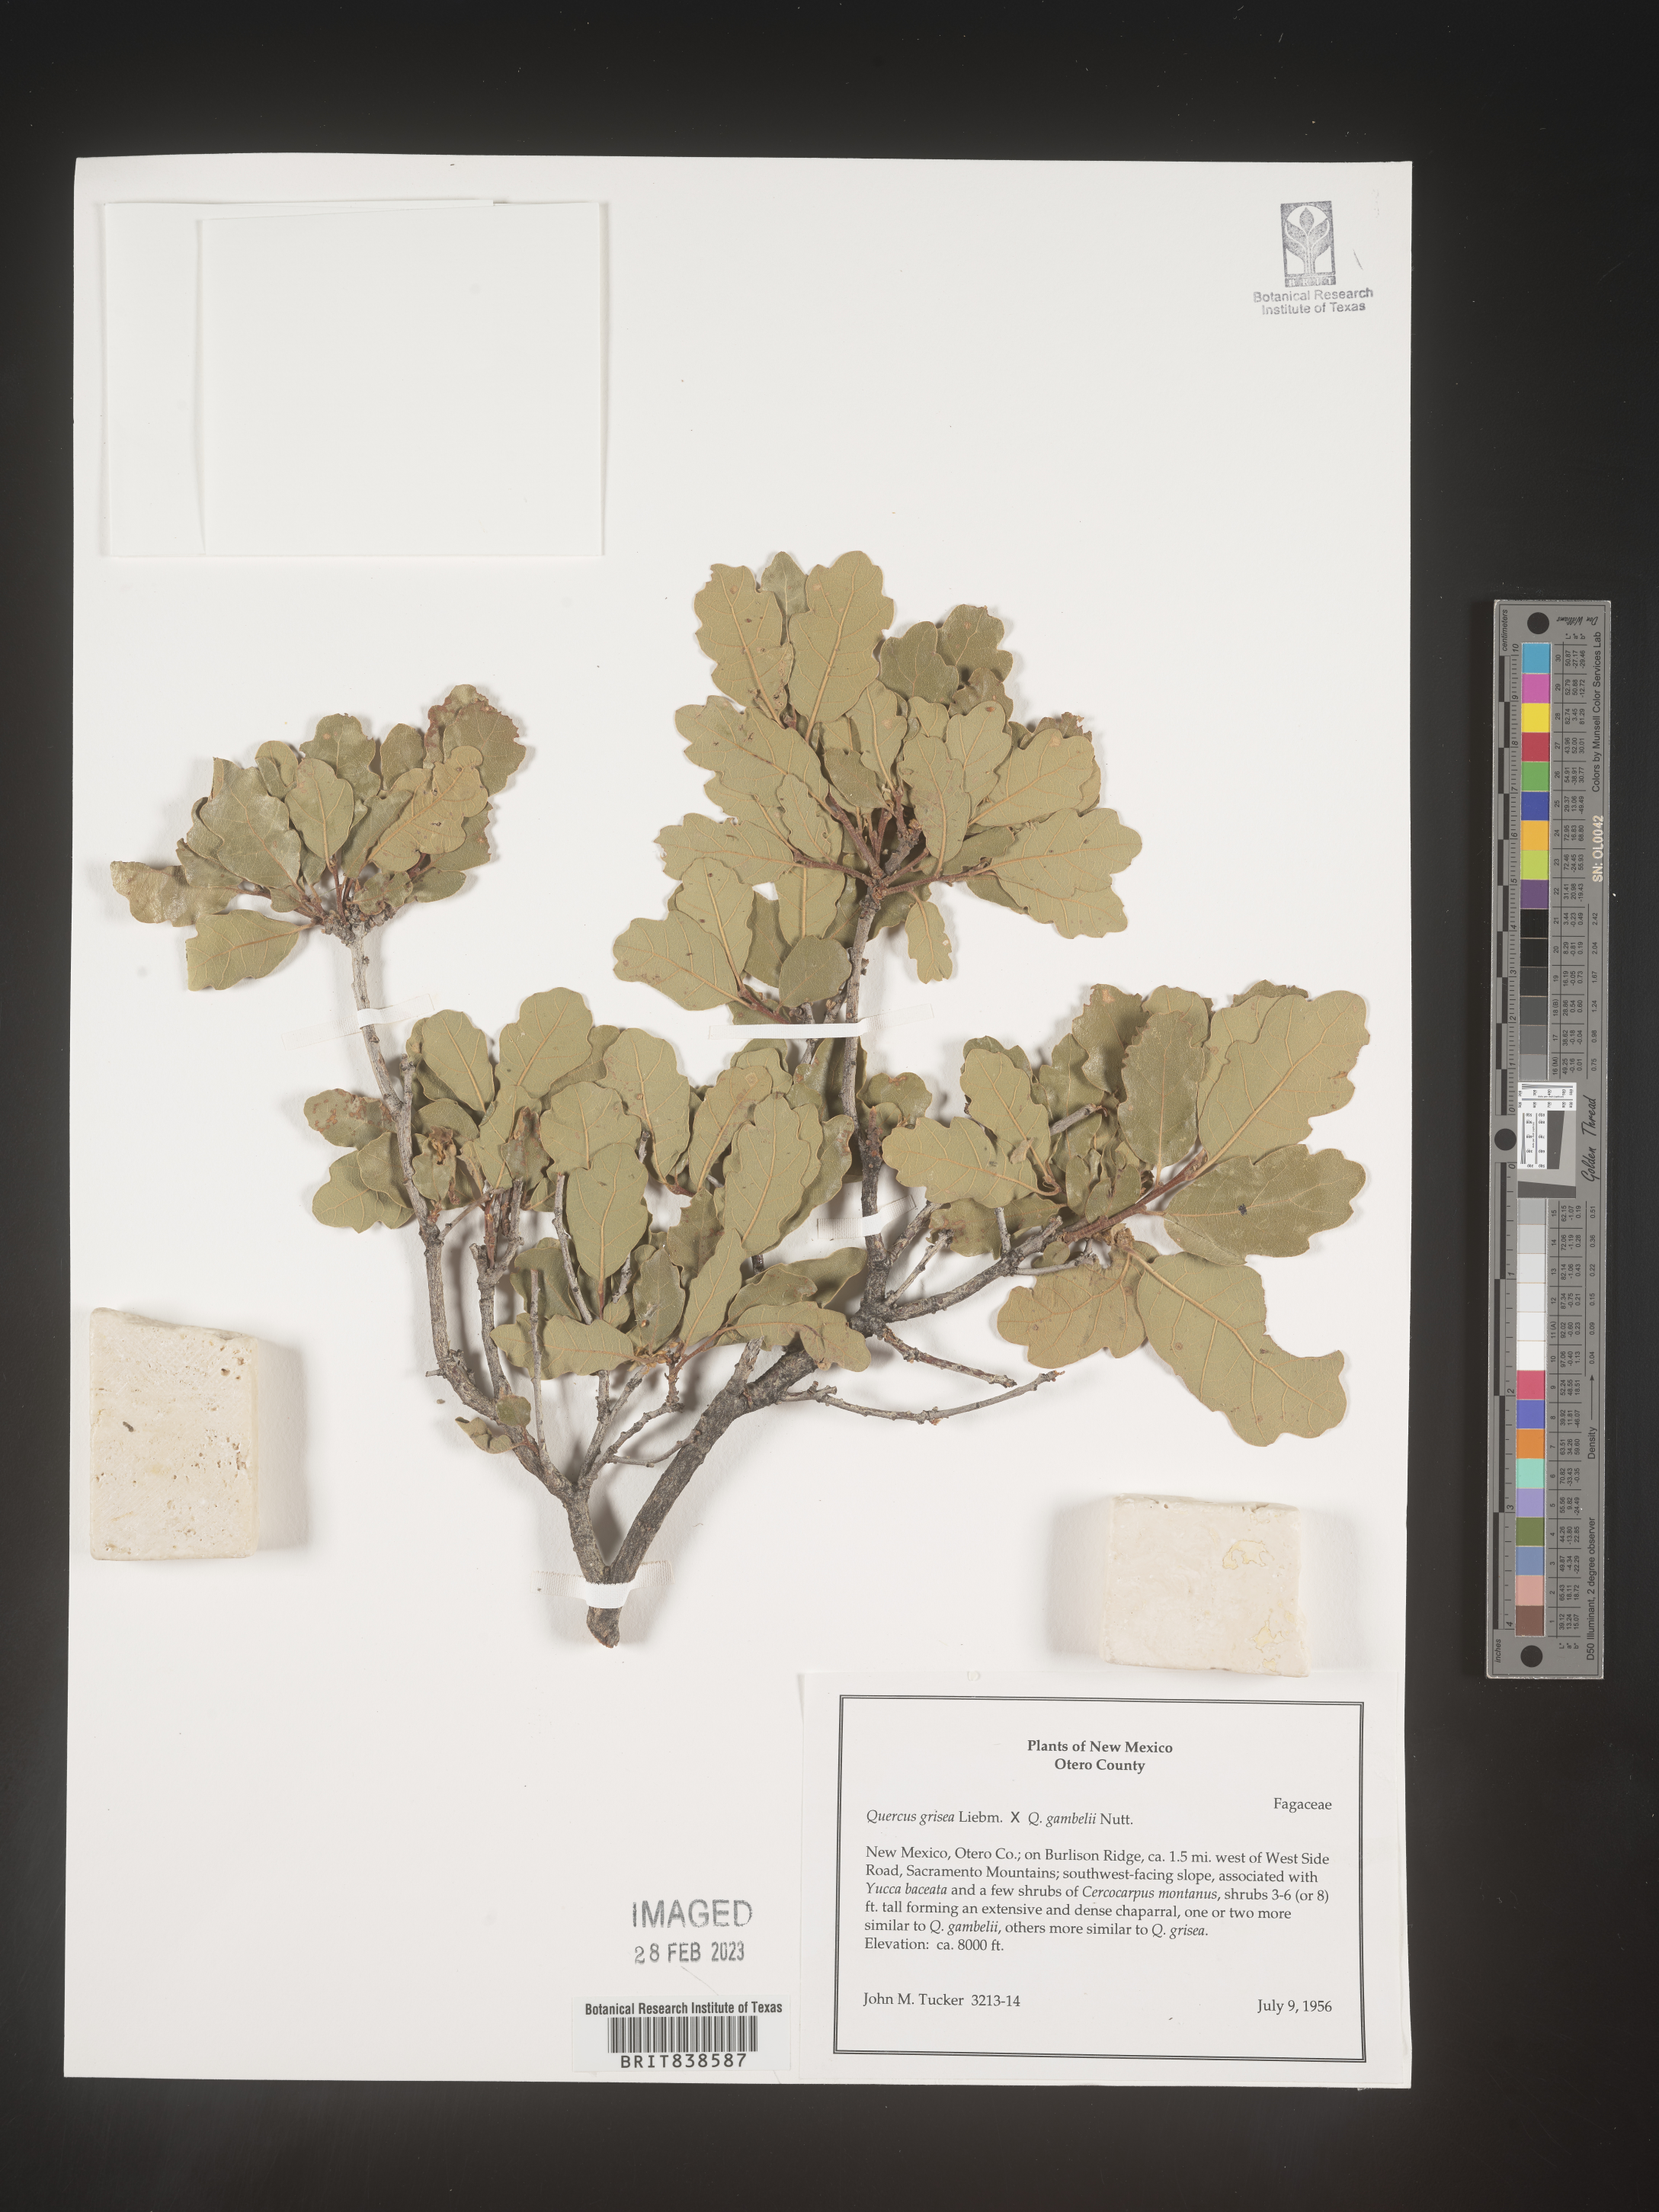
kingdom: Plantae
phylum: Tracheophyta
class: Magnoliopsida
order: Fagales
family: Fagaceae
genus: Quercus
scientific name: Quercus grisea
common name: Gray oak
